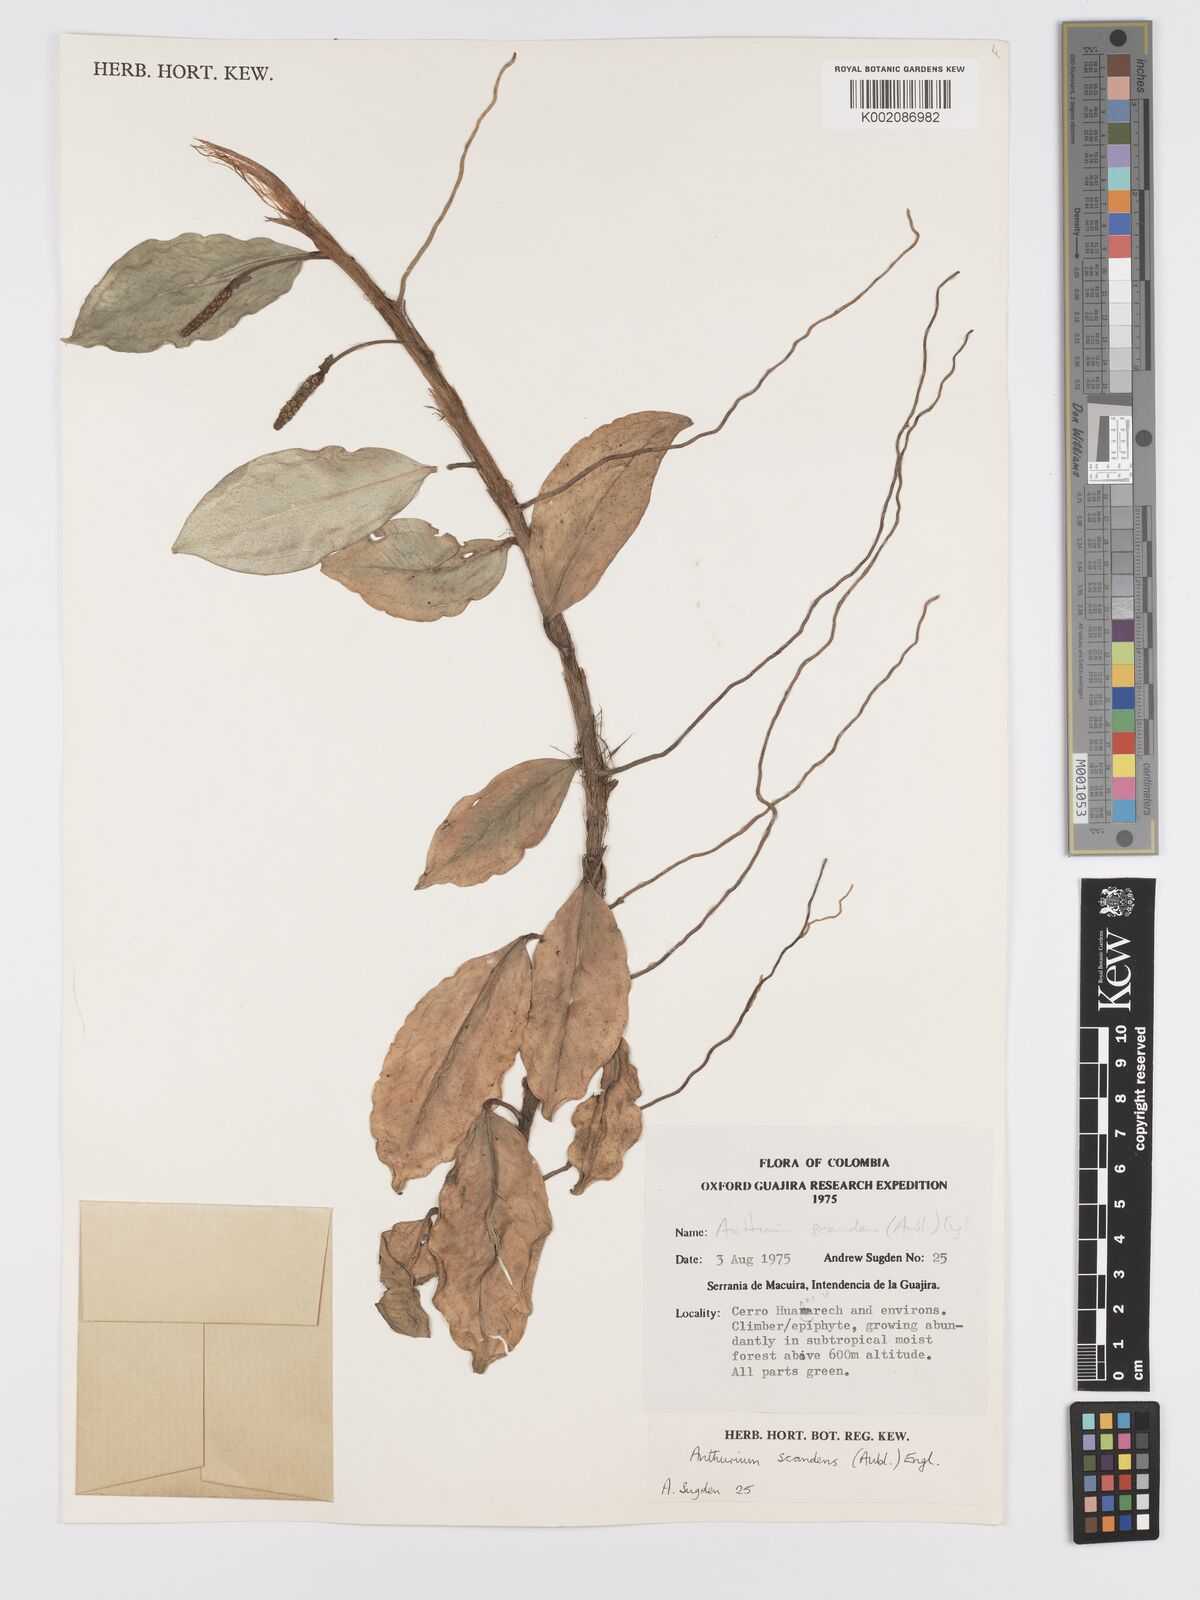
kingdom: Plantae
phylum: Tracheophyta
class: Liliopsida
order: Alismatales
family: Araceae
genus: Anthurium
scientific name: Anthurium scandens
